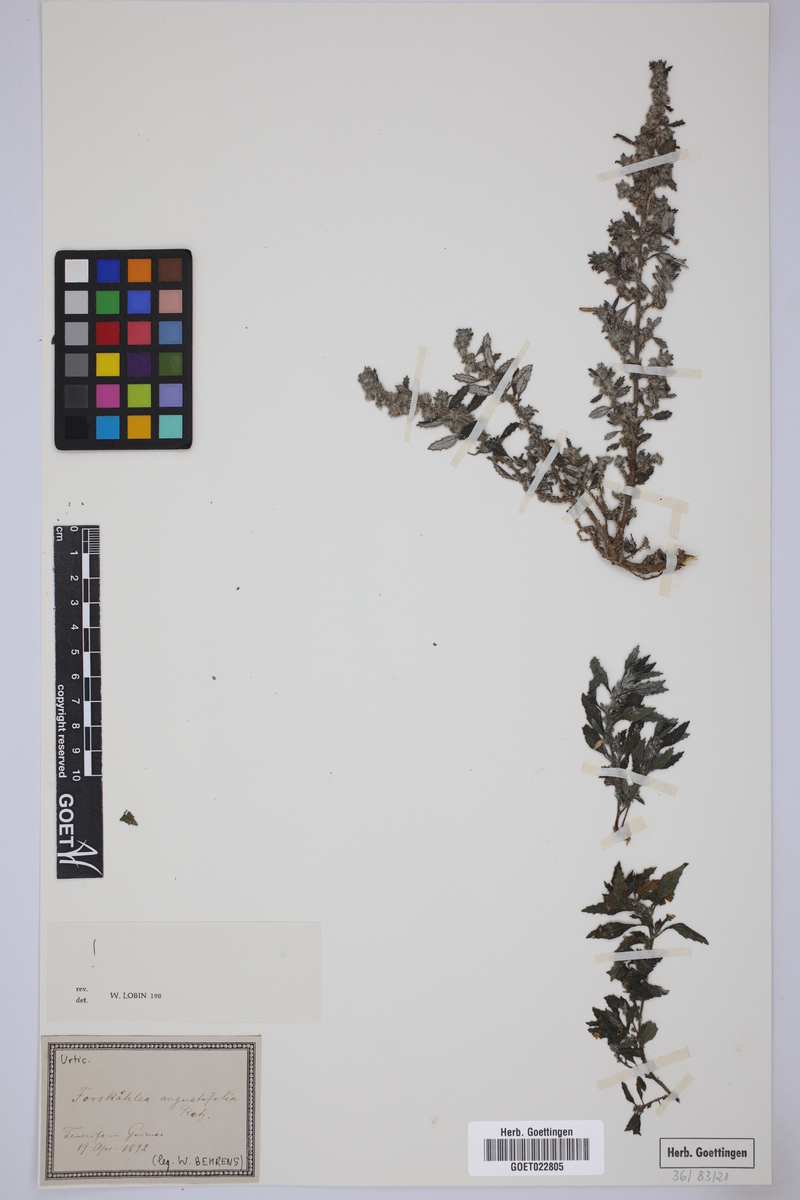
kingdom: Plantae
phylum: Tracheophyta
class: Magnoliopsida
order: Rosales
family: Urticaceae
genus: Forsskaolea
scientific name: Forsskaolea angustifolia
